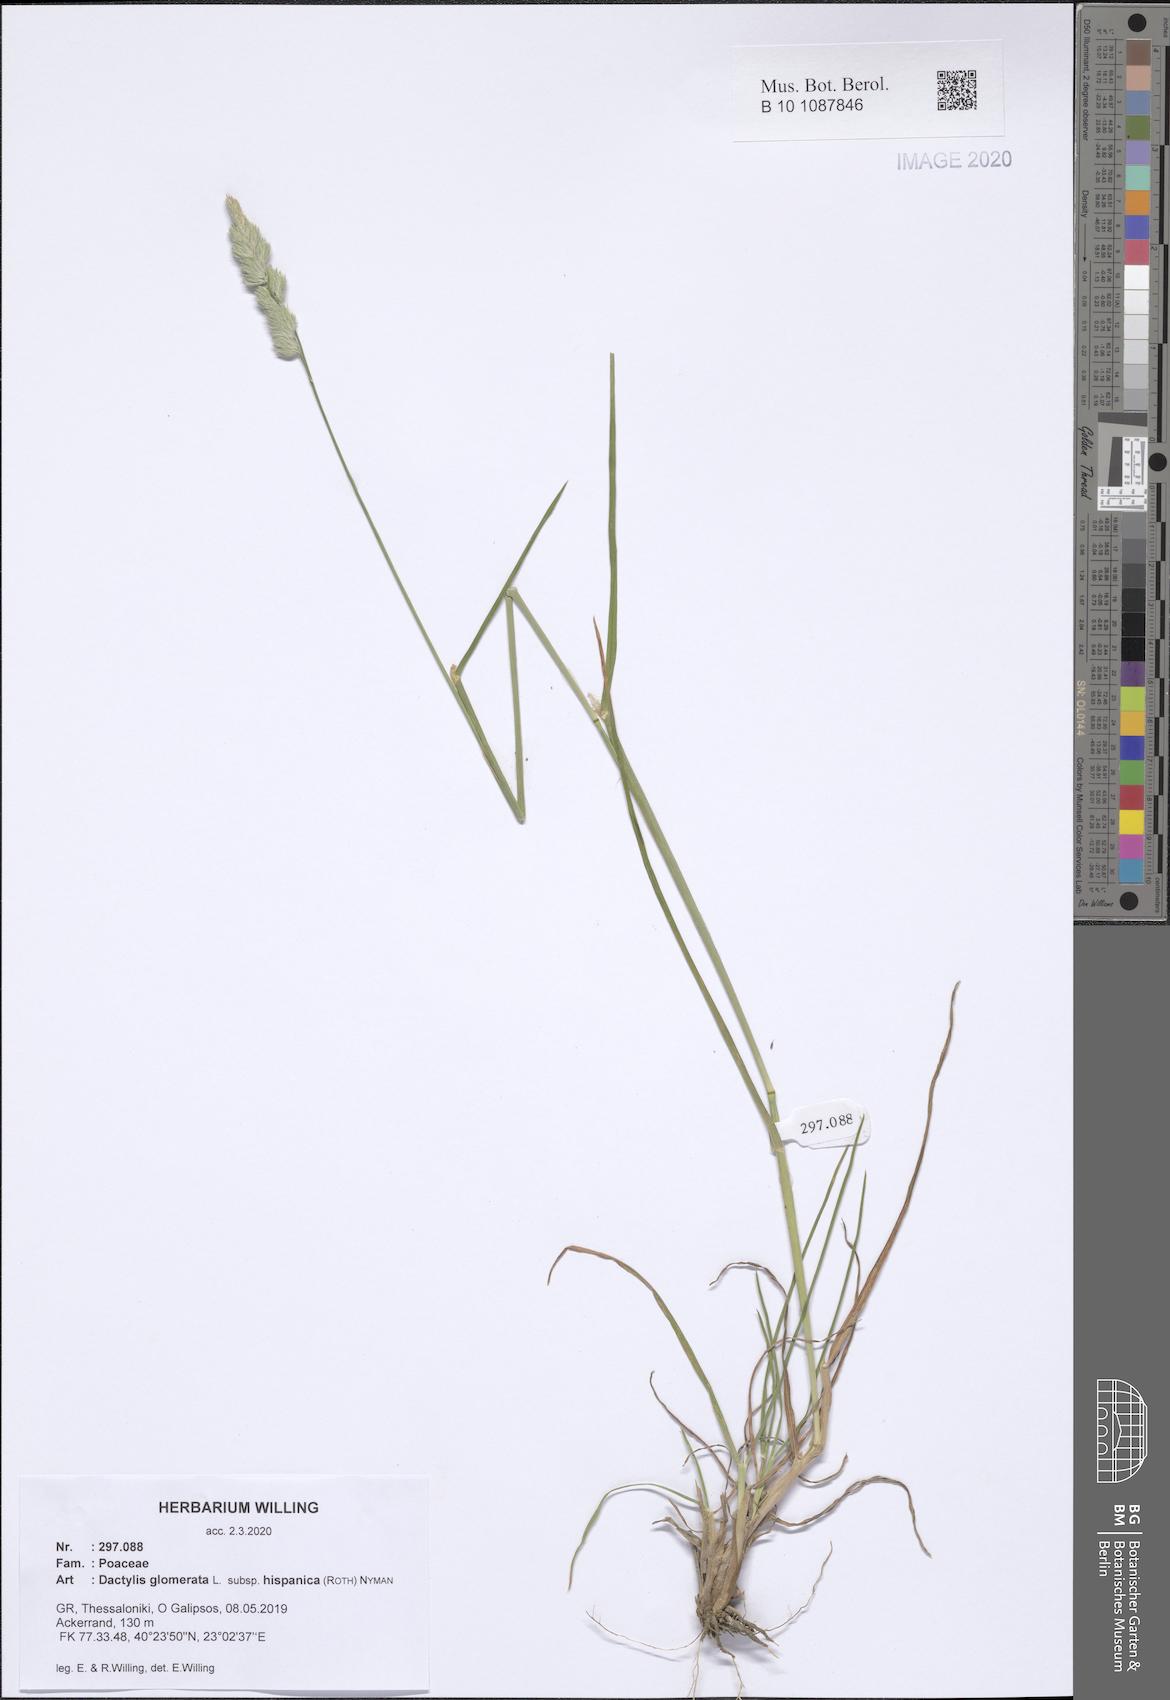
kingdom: Plantae
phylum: Tracheophyta
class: Liliopsida
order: Poales
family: Poaceae
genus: Dactylis
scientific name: Dactylis glomerata
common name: Orchardgrass
